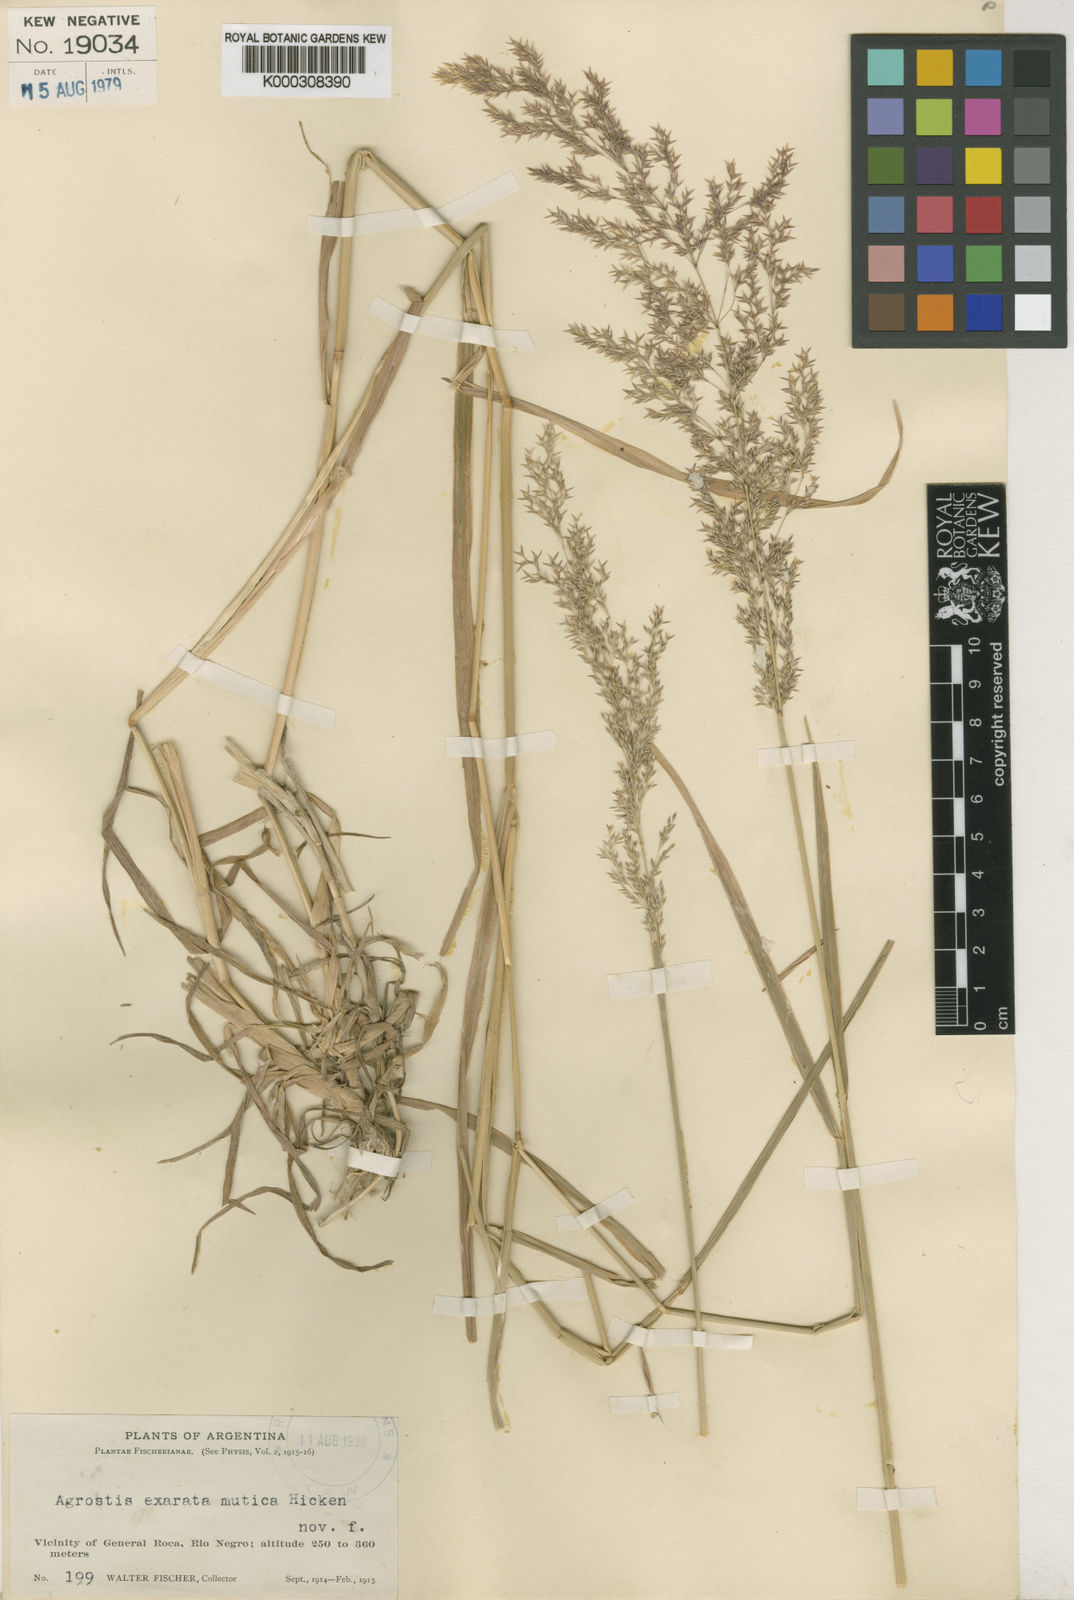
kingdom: Plantae
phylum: Tracheophyta
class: Liliopsida
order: Poales
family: Poaceae
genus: Agrostis
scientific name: Agrostis exarata
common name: Spike bent
